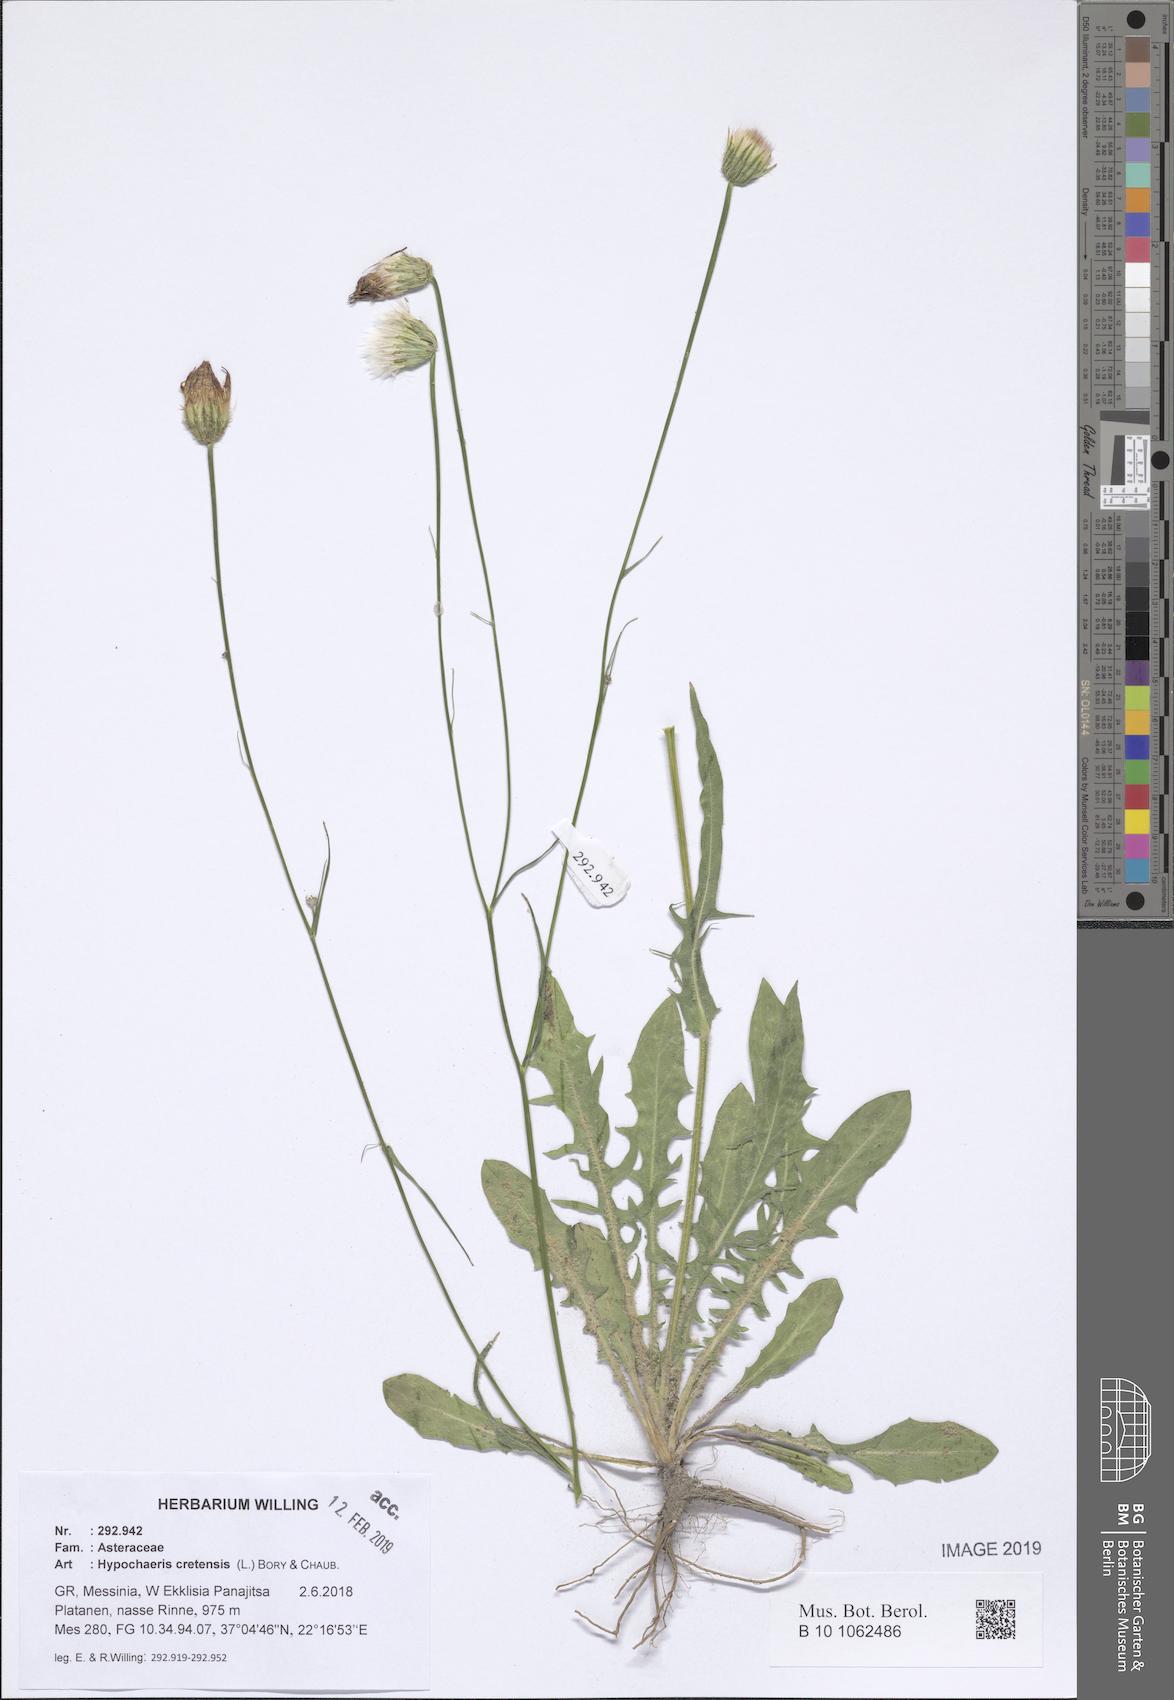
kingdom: Plantae
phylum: Tracheophyta
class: Magnoliopsida
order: Asterales
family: Asteraceae
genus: Hypochaeris
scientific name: Hypochaeris cretensis
